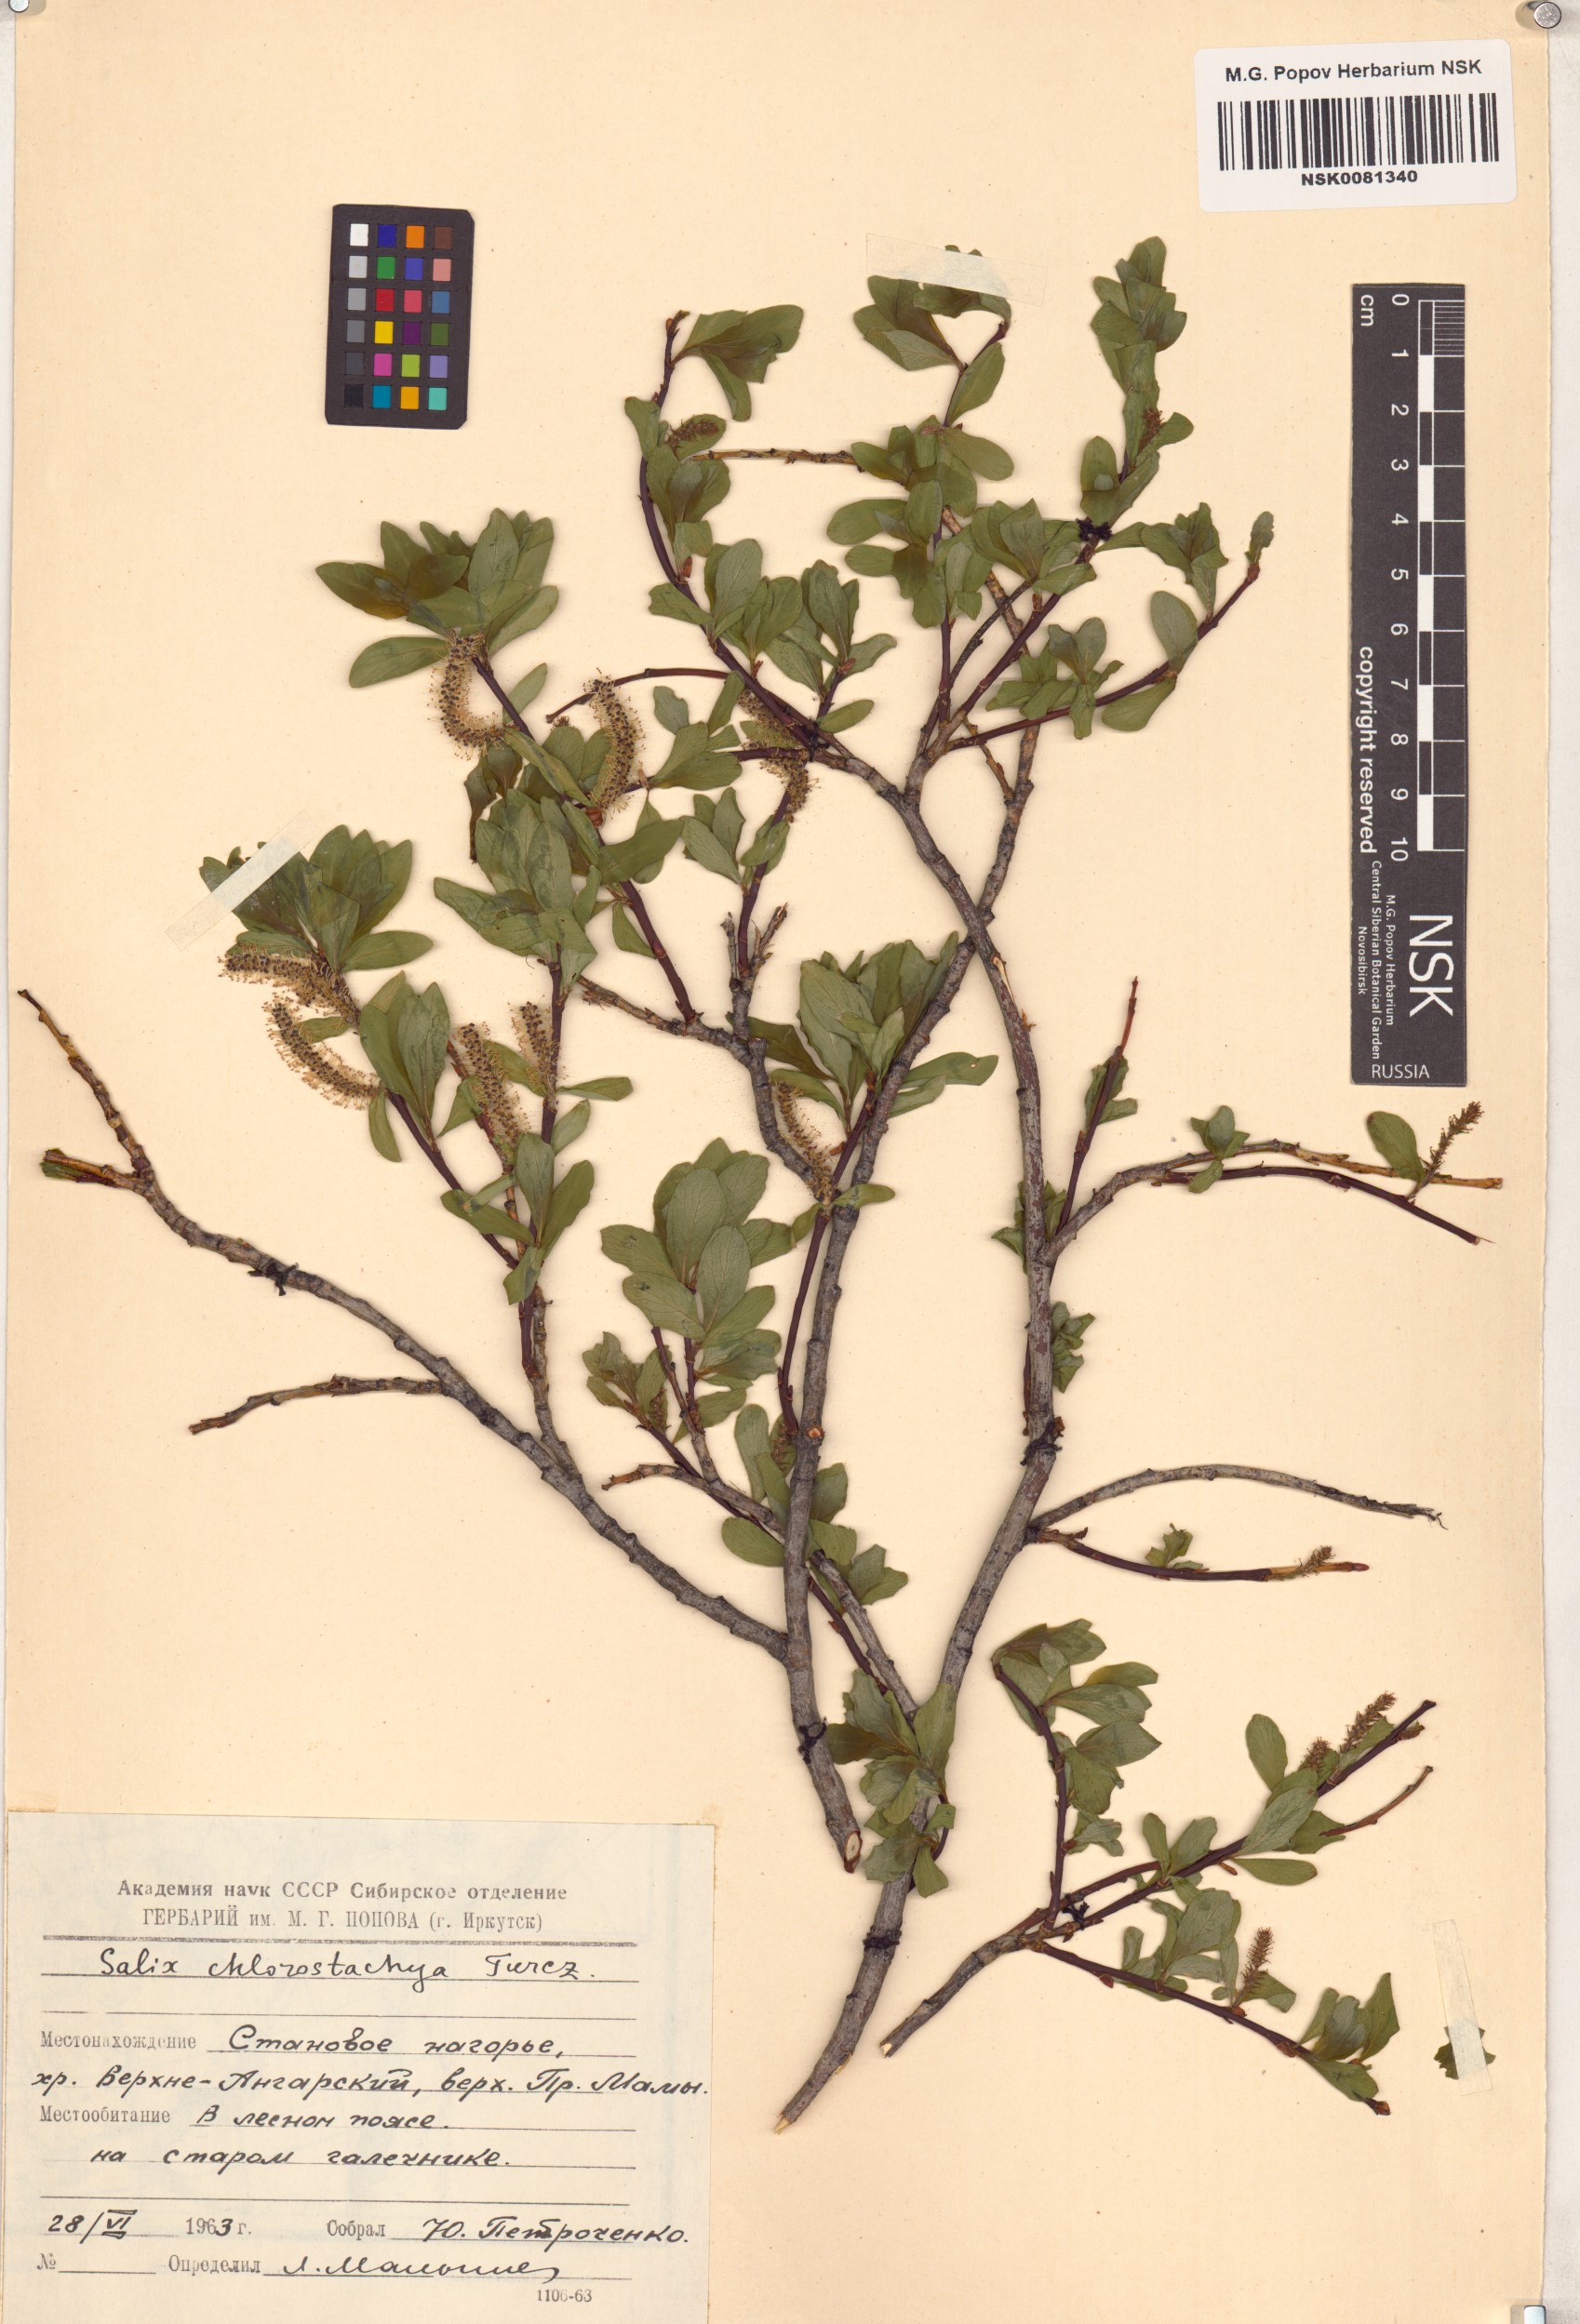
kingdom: Plantae
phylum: Tracheophyta
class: Magnoliopsida
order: Malpighiales
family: Salicaceae
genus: Salix
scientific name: Salix rhamnifolia
